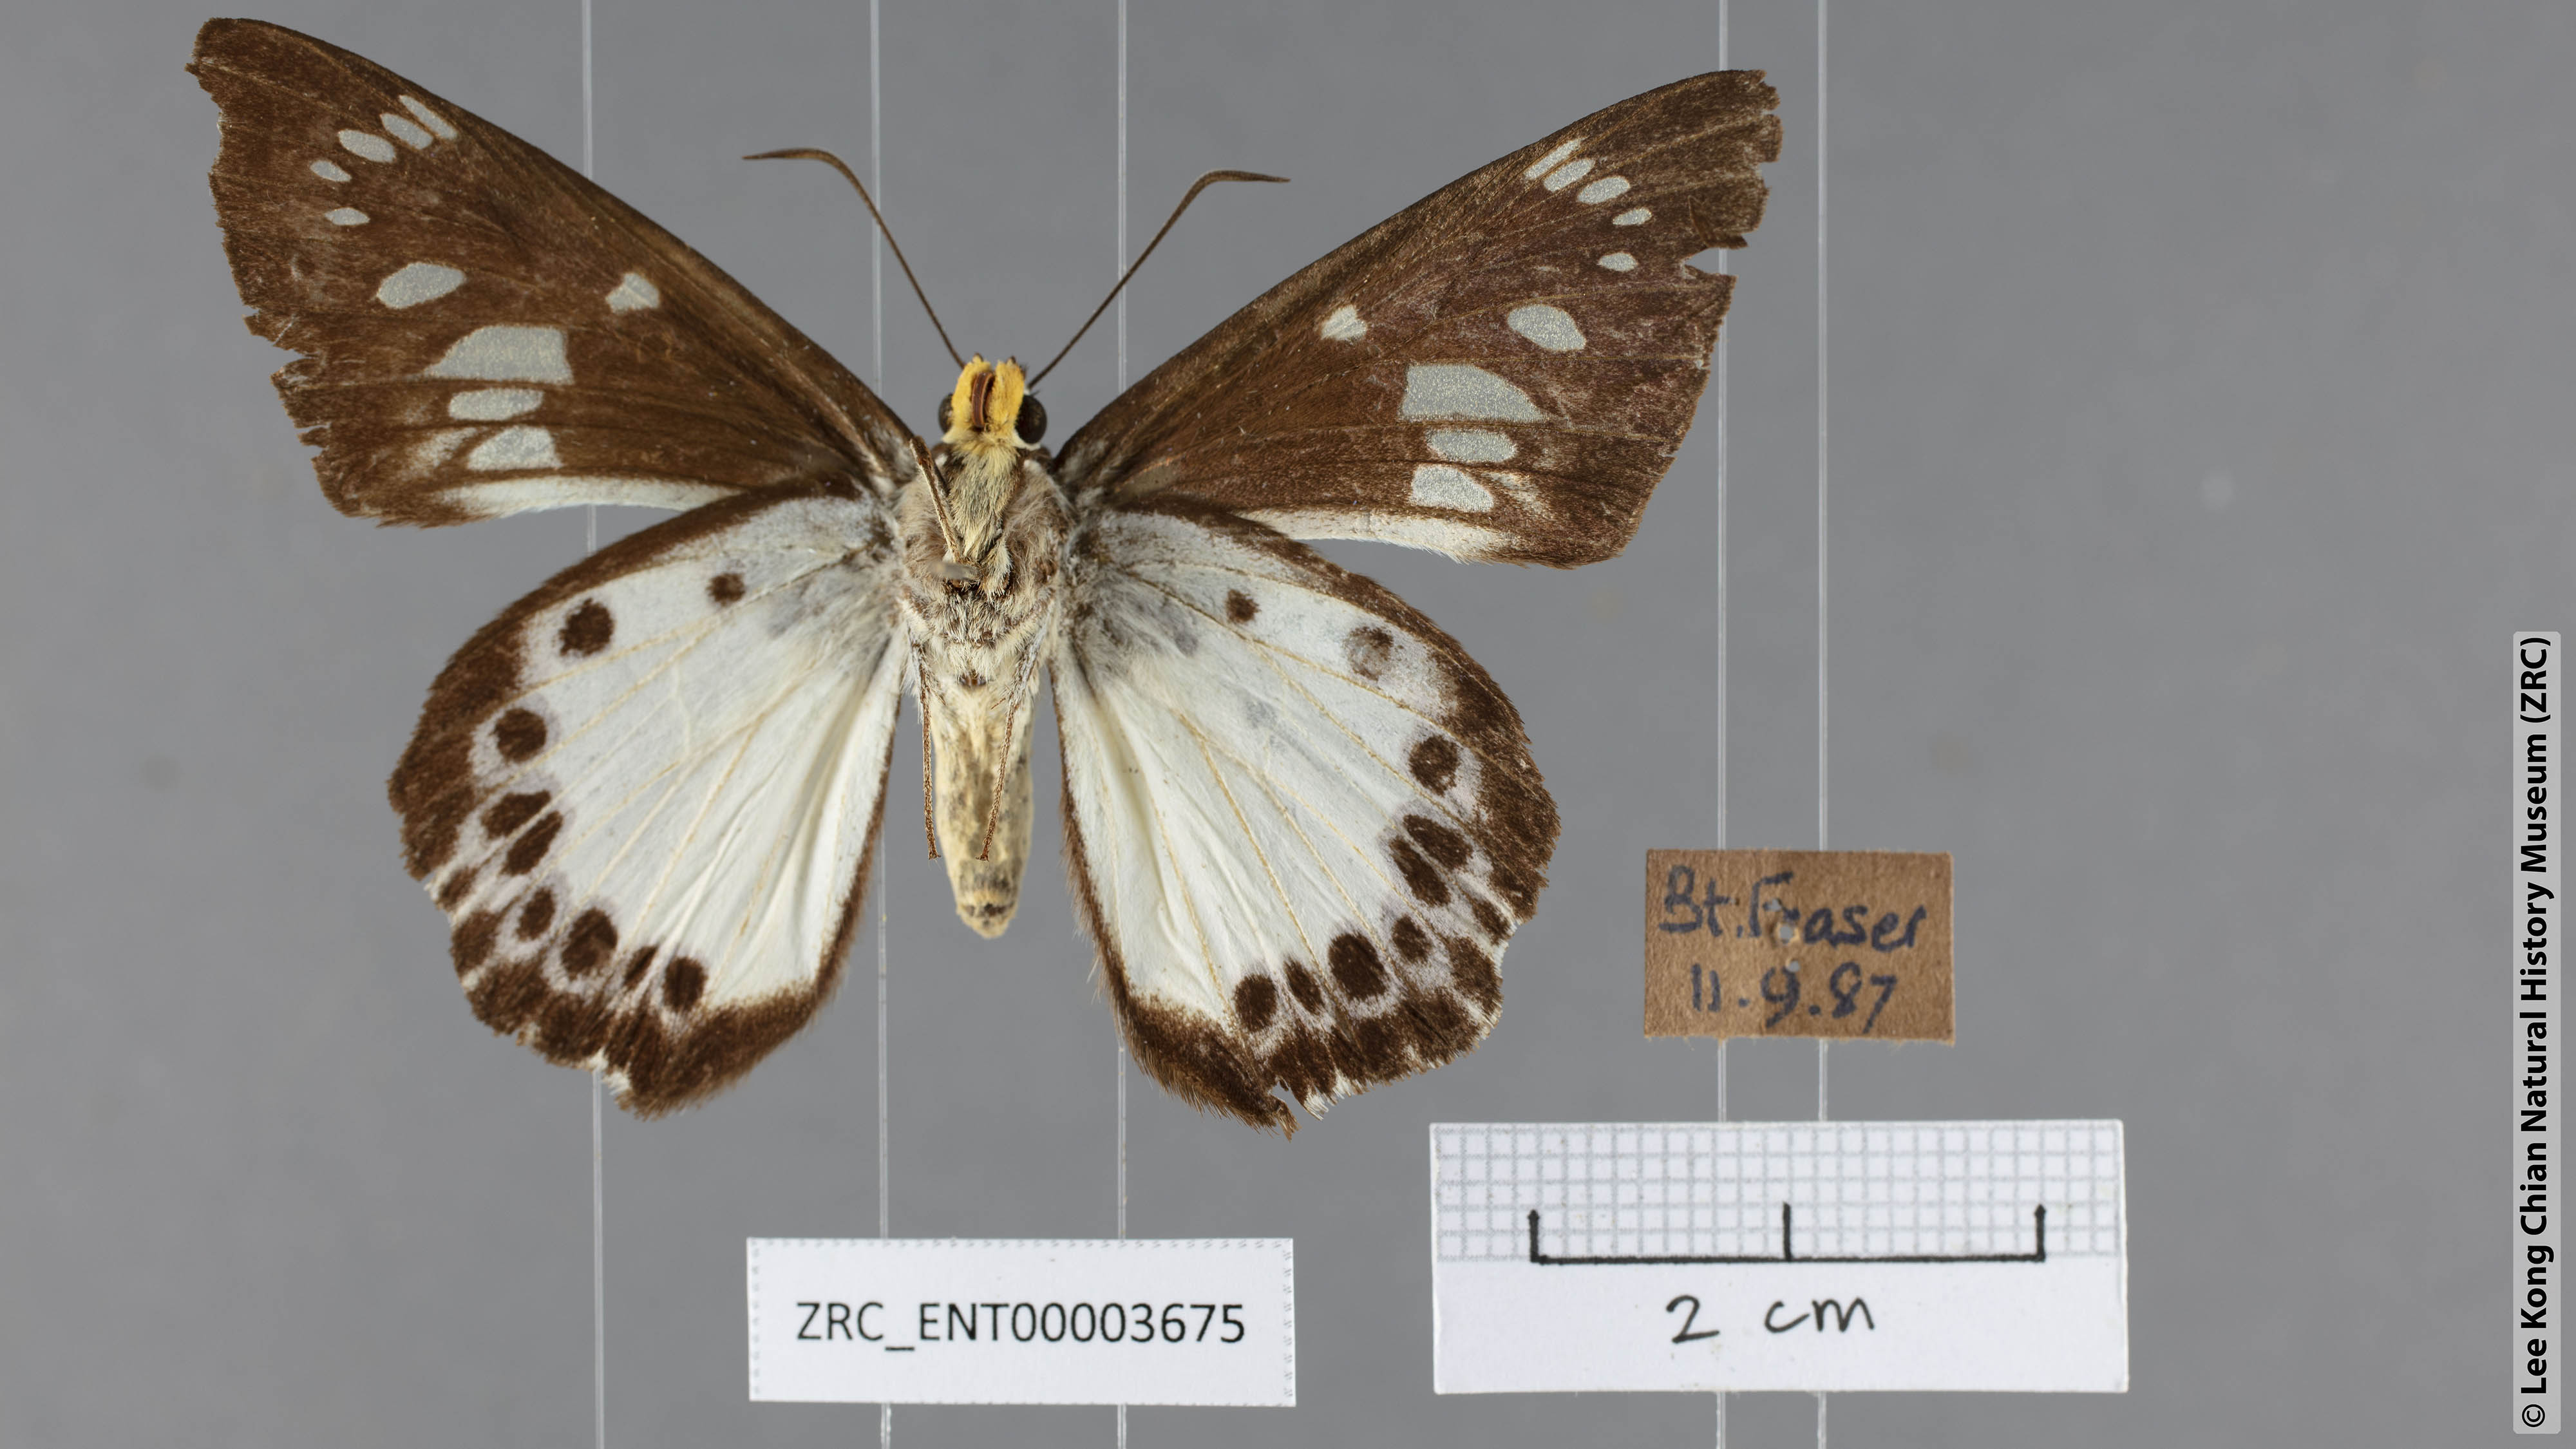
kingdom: Animalia
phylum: Arthropoda
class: Insecta
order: Lepidoptera
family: Hesperiidae
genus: Satarupa
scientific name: Satarupa gopala
